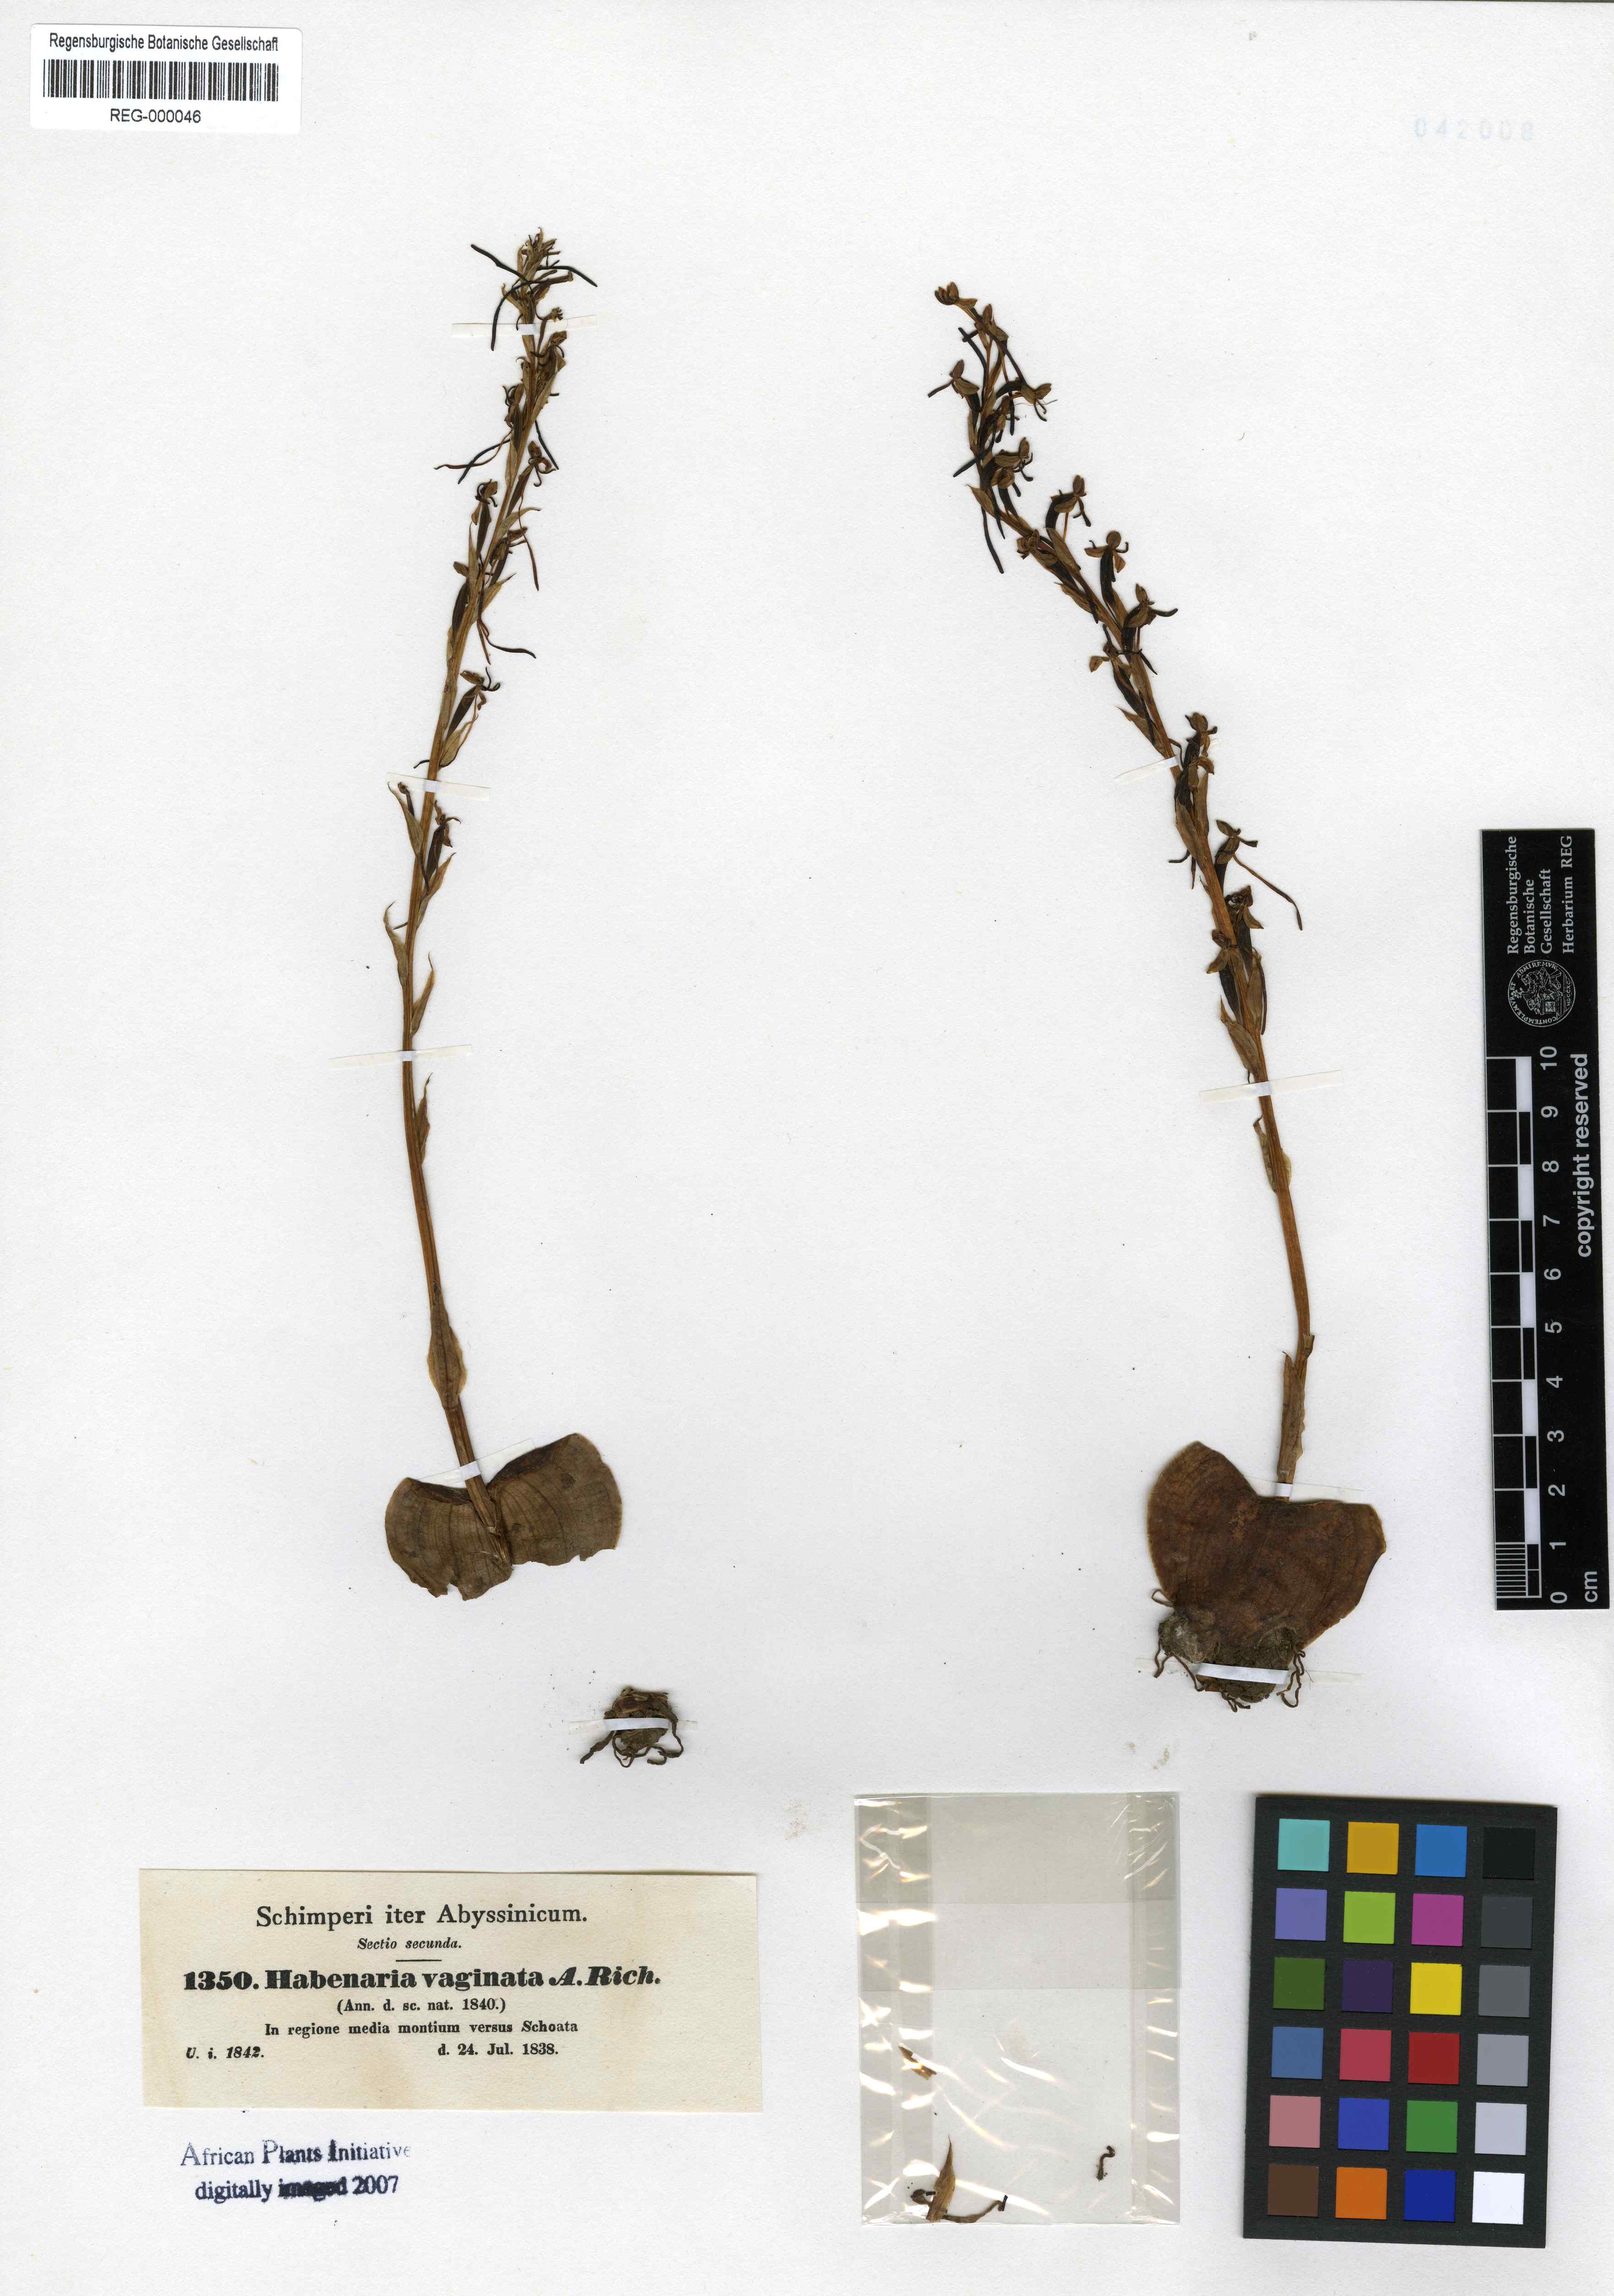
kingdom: Plantae
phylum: Tracheophyta
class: Liliopsida
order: Asparagales
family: Orchidaceae
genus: Habenaria
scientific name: Habenaria vaginata
